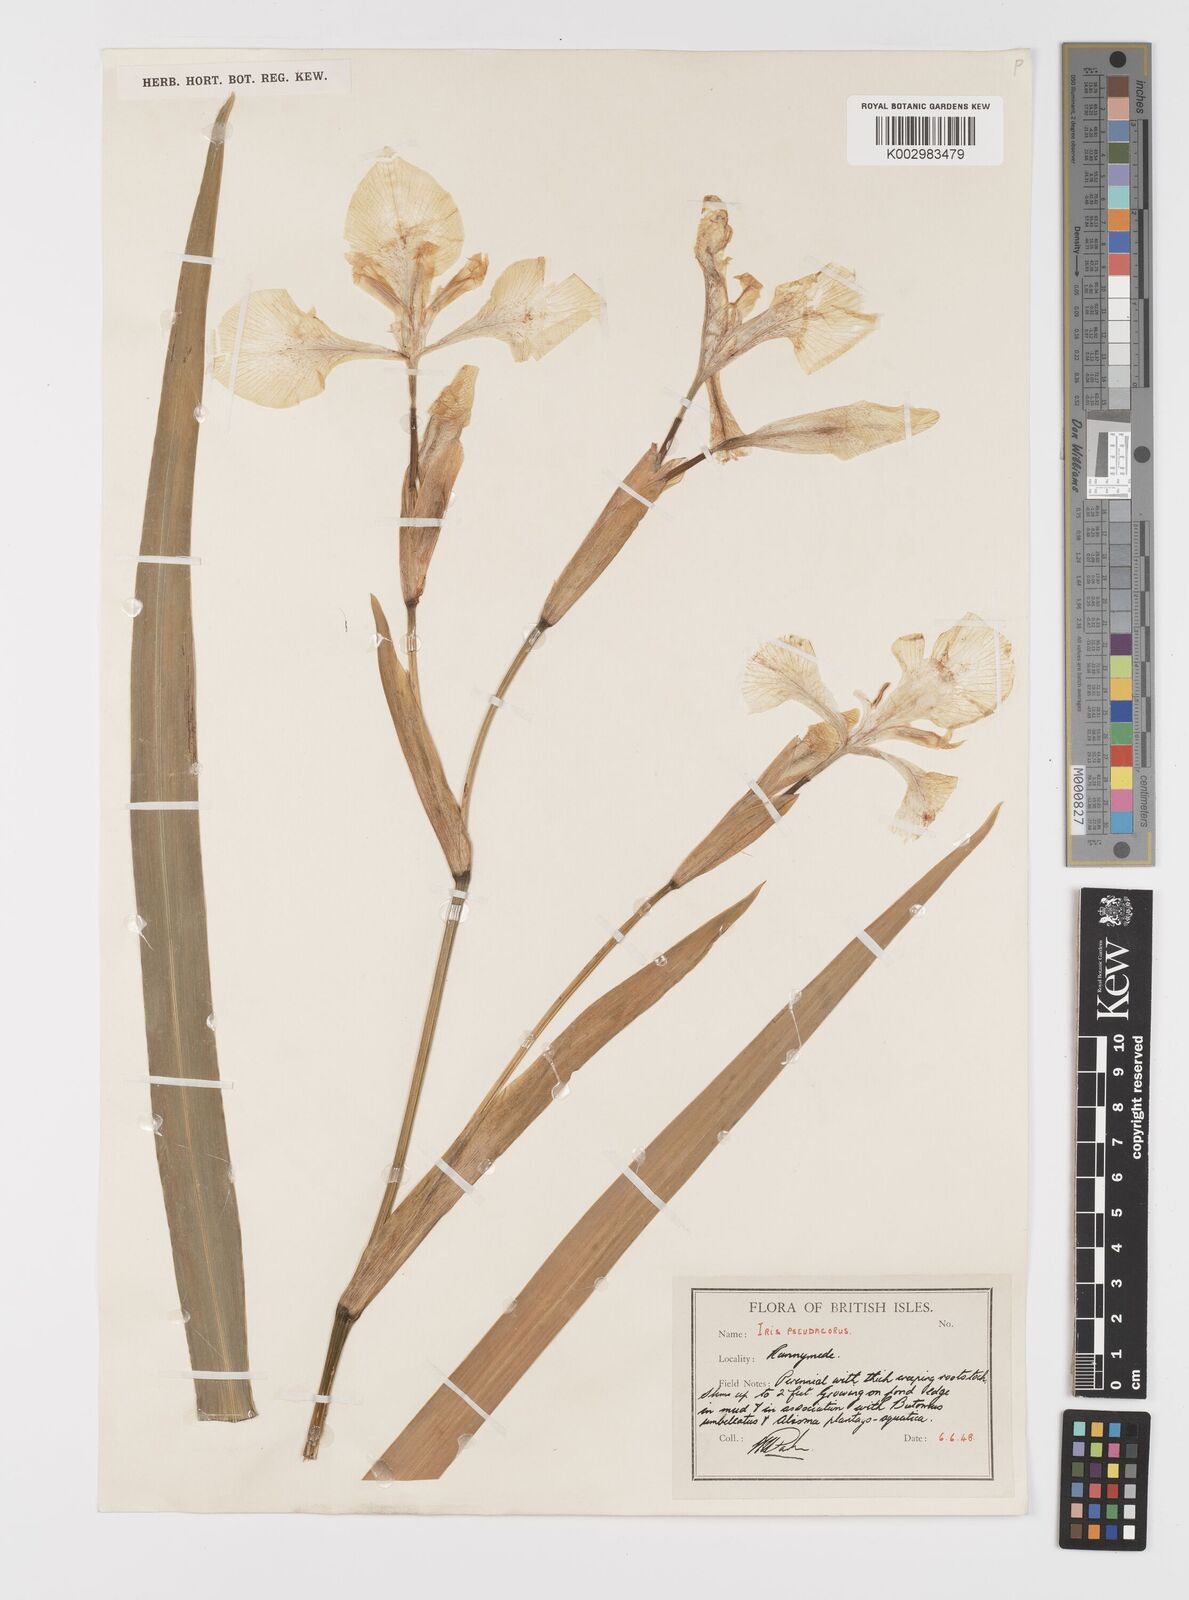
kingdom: Plantae
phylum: Tracheophyta
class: Liliopsida
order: Asparagales
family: Iridaceae
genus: Iris
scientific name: Iris pseudacorus
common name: Yellow flag
